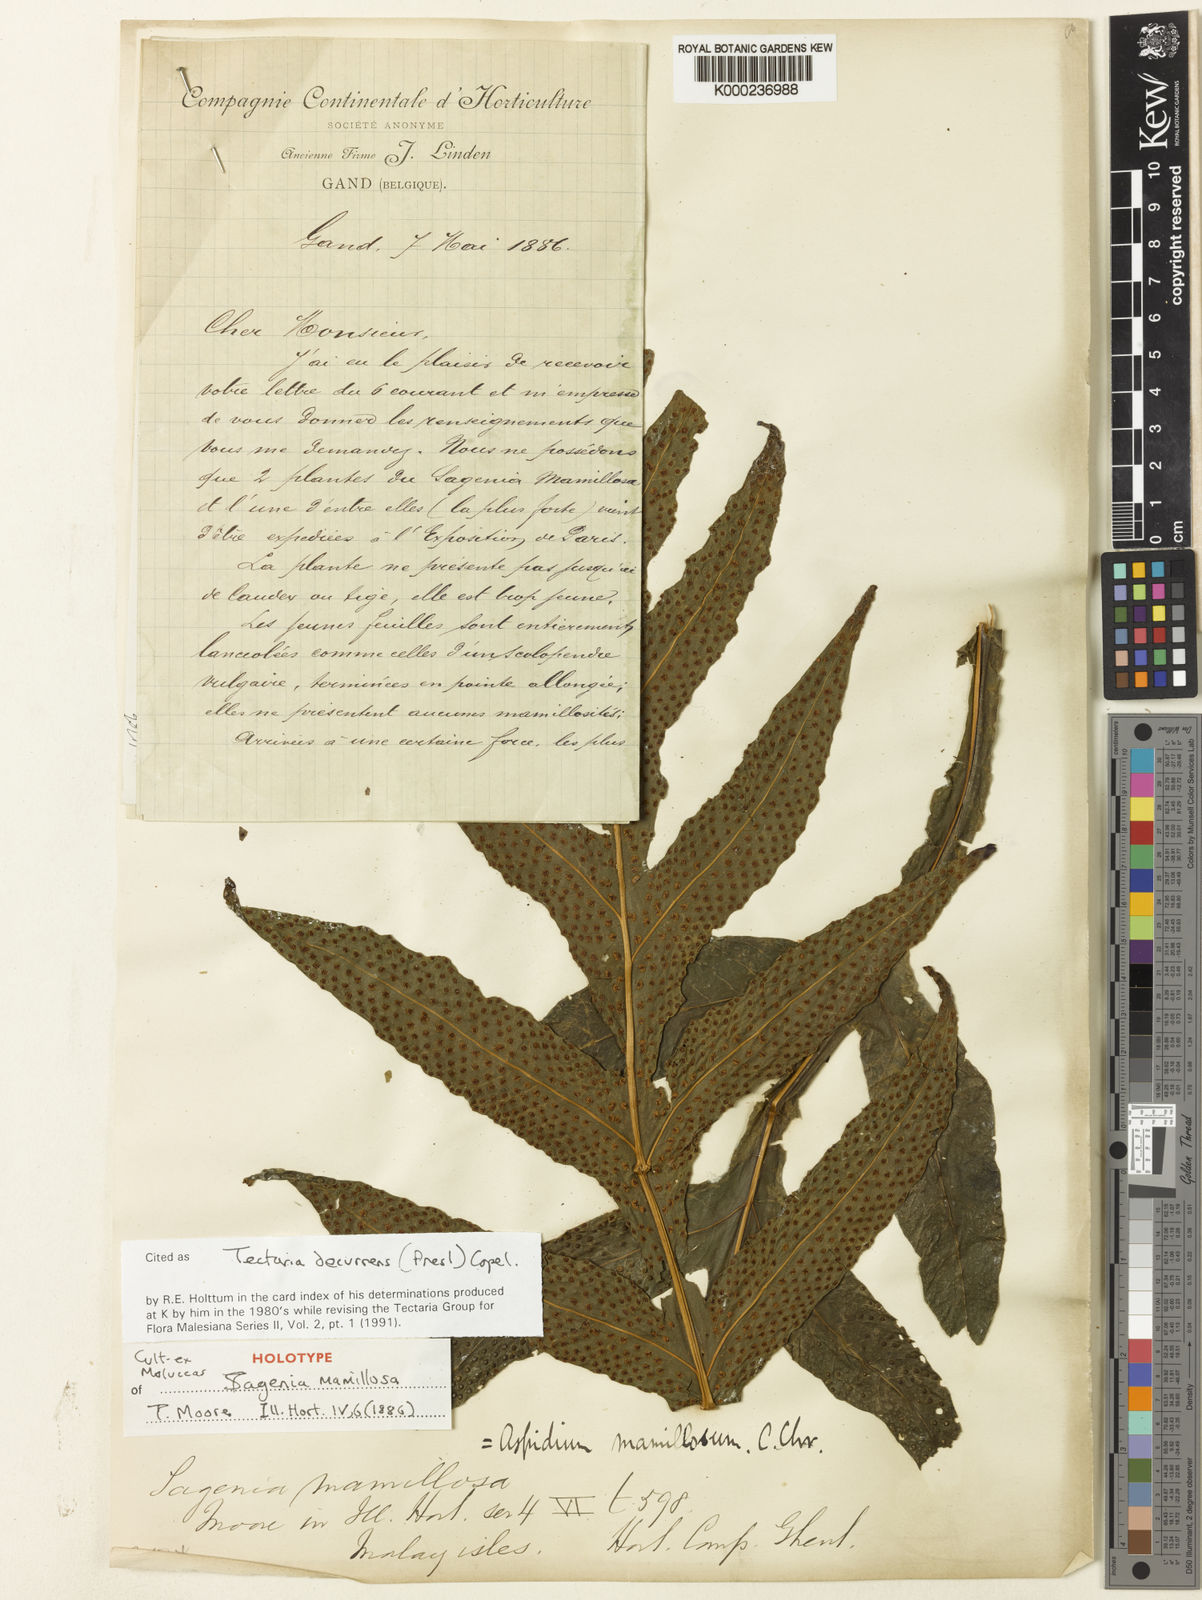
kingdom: Plantae
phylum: Tracheophyta
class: Polypodiopsida
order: Polypodiales
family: Tectariaceae
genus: Tectaria
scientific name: Tectaria decurrens
